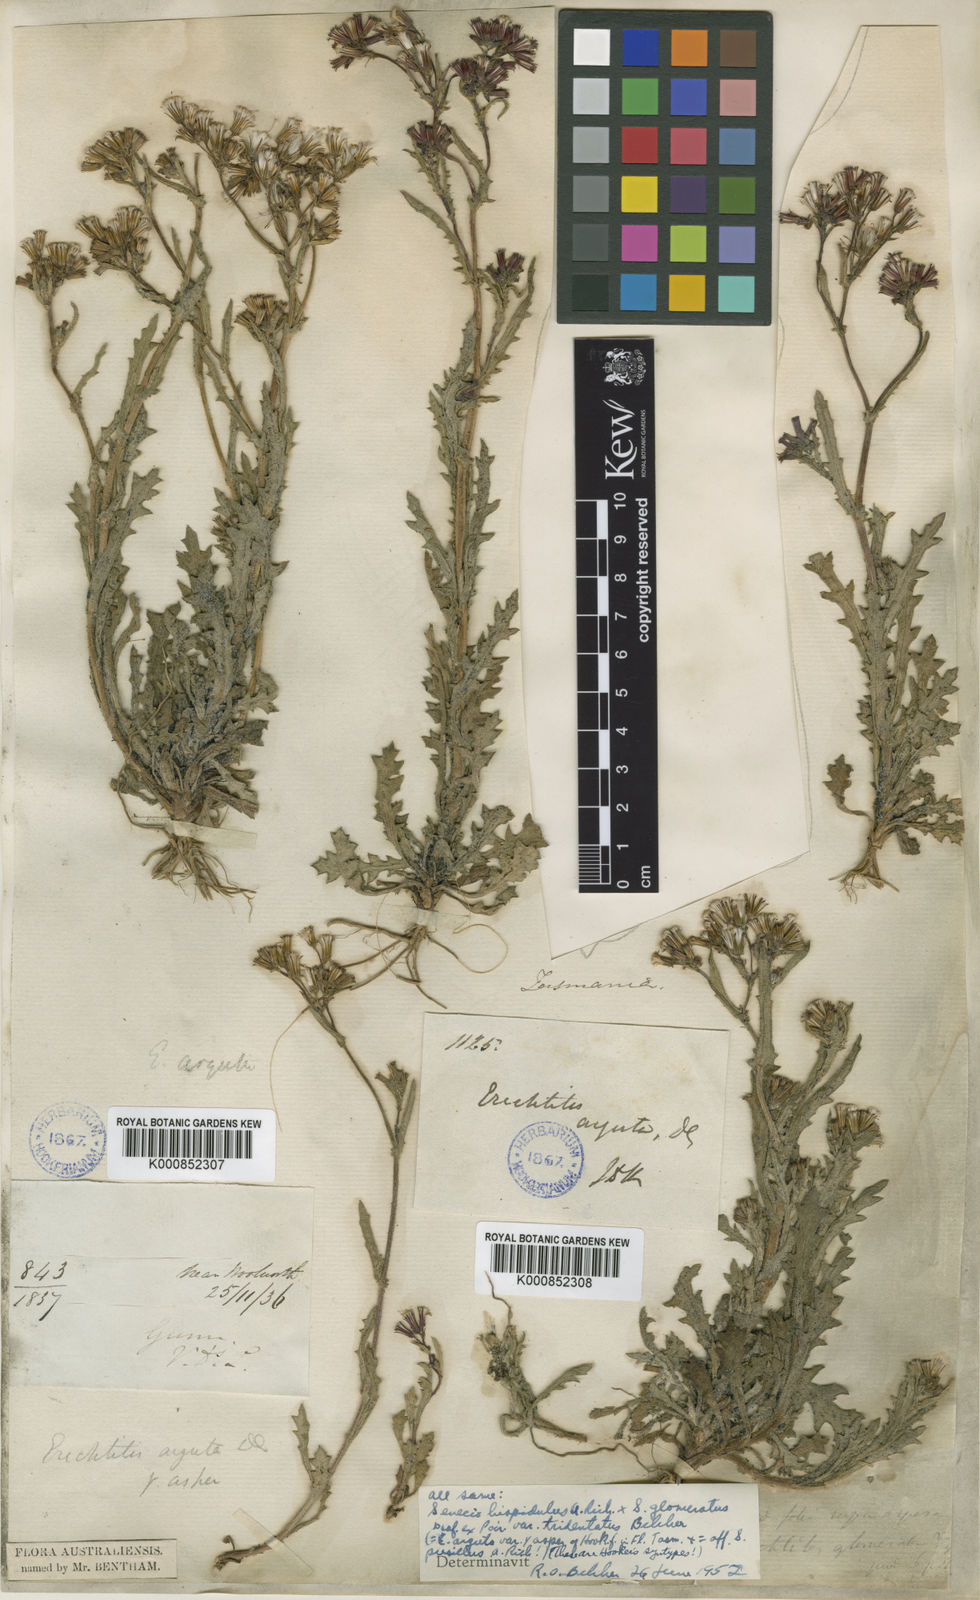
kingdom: Plantae
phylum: Tracheophyta
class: Magnoliopsida
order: Asterales
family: Asteraceae
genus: Senecio
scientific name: Senecio hispidulus
